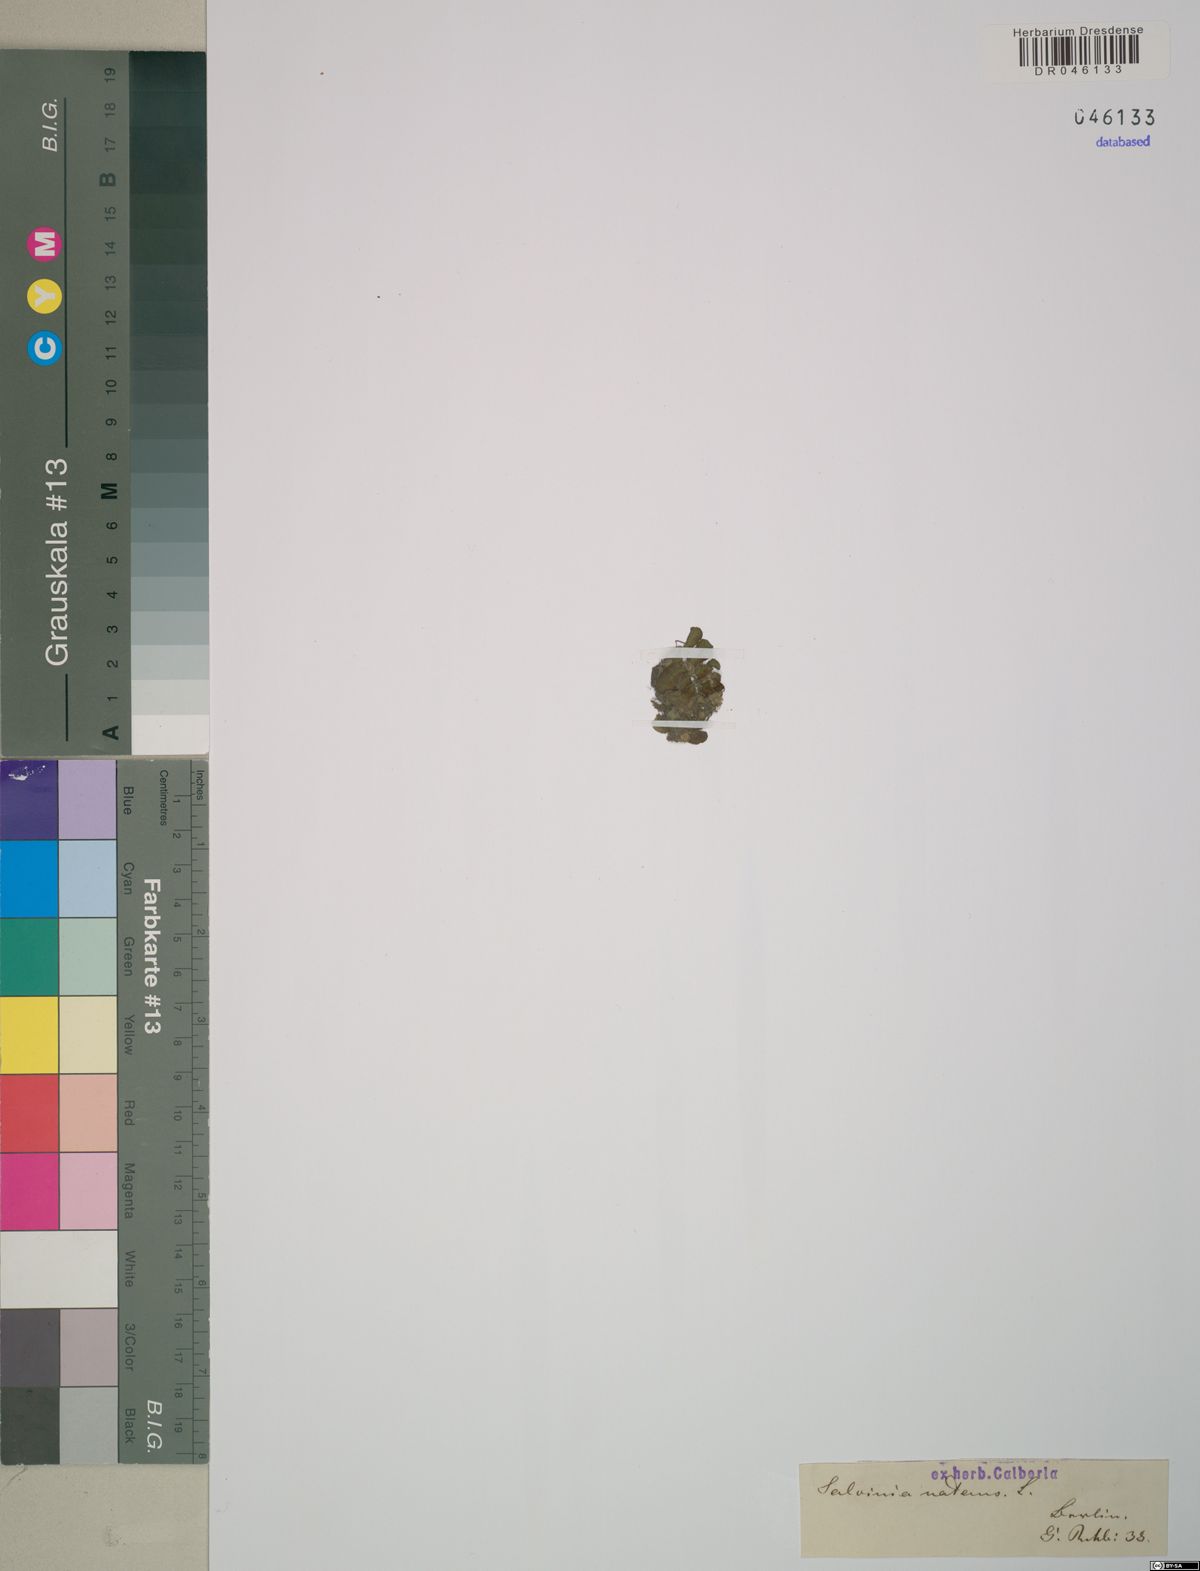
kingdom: Plantae
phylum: Tracheophyta
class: Polypodiopsida
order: Salviniales
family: Salviniaceae
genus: Salvinia
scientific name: Salvinia natans
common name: Floating fern
